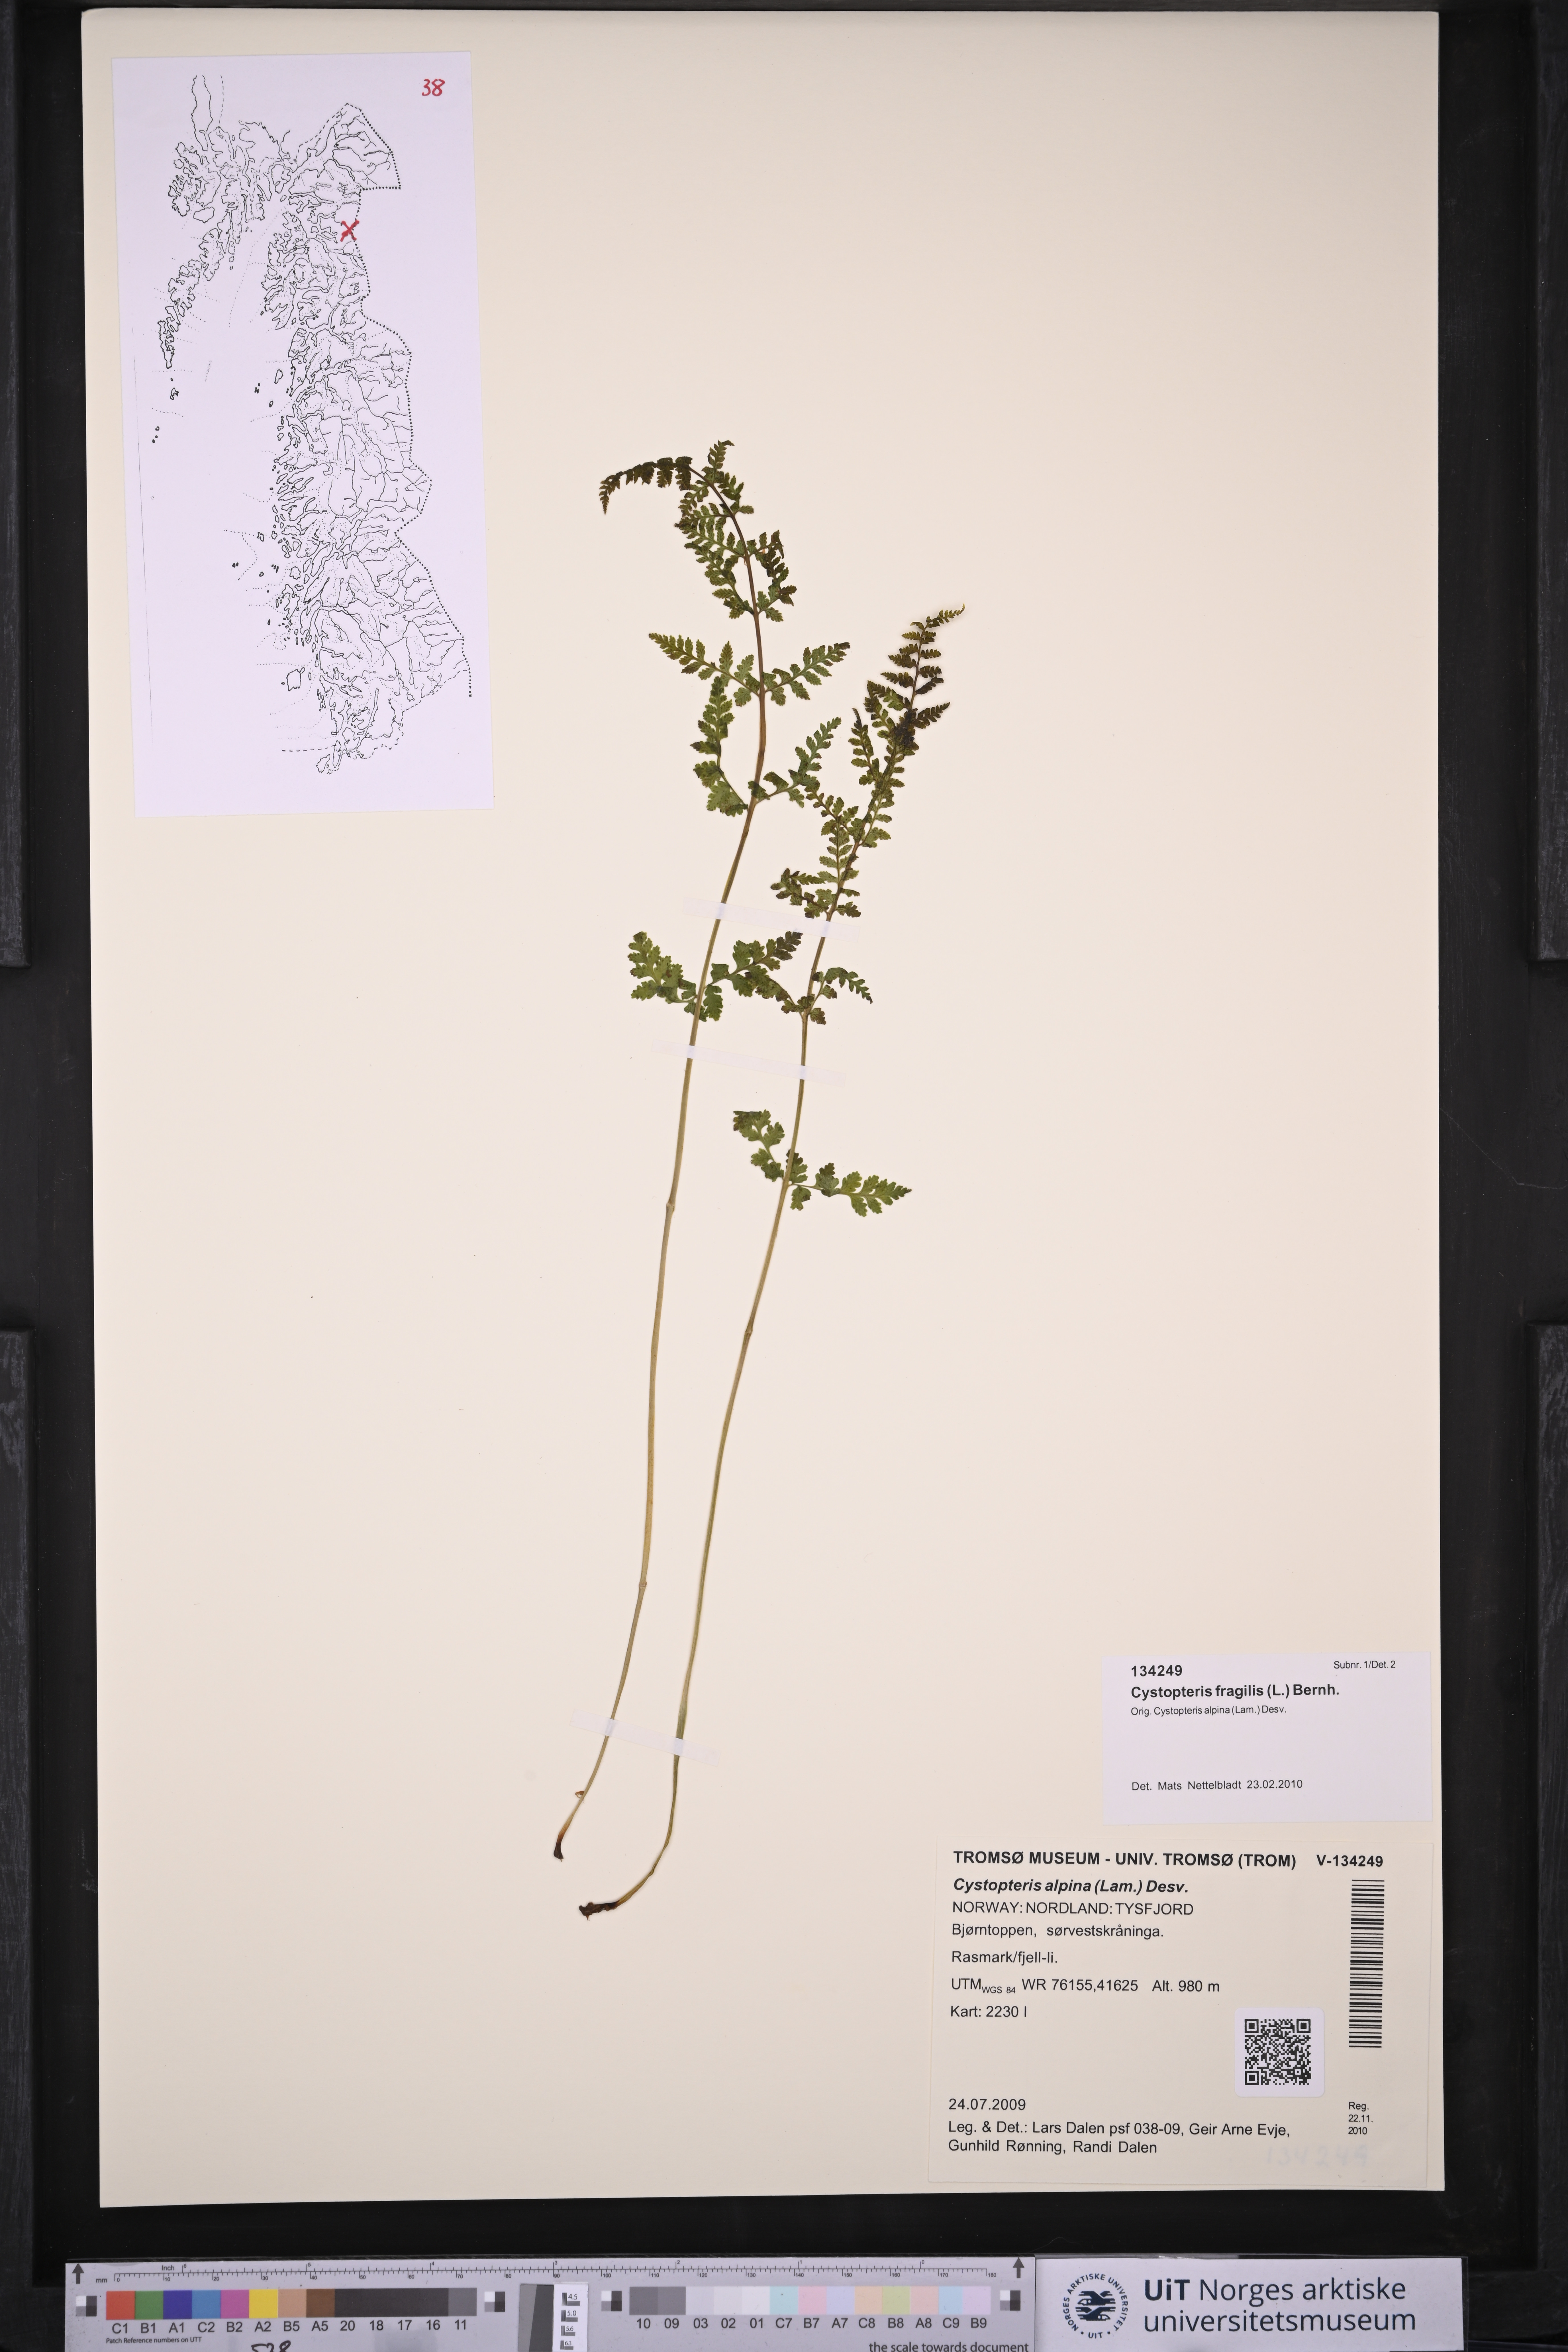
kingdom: Plantae
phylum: Tracheophyta
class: Polypodiopsida
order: Polypodiales
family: Cystopteridaceae
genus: Cystopteris
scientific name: Cystopteris fragilis
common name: Brittle bladder fern
